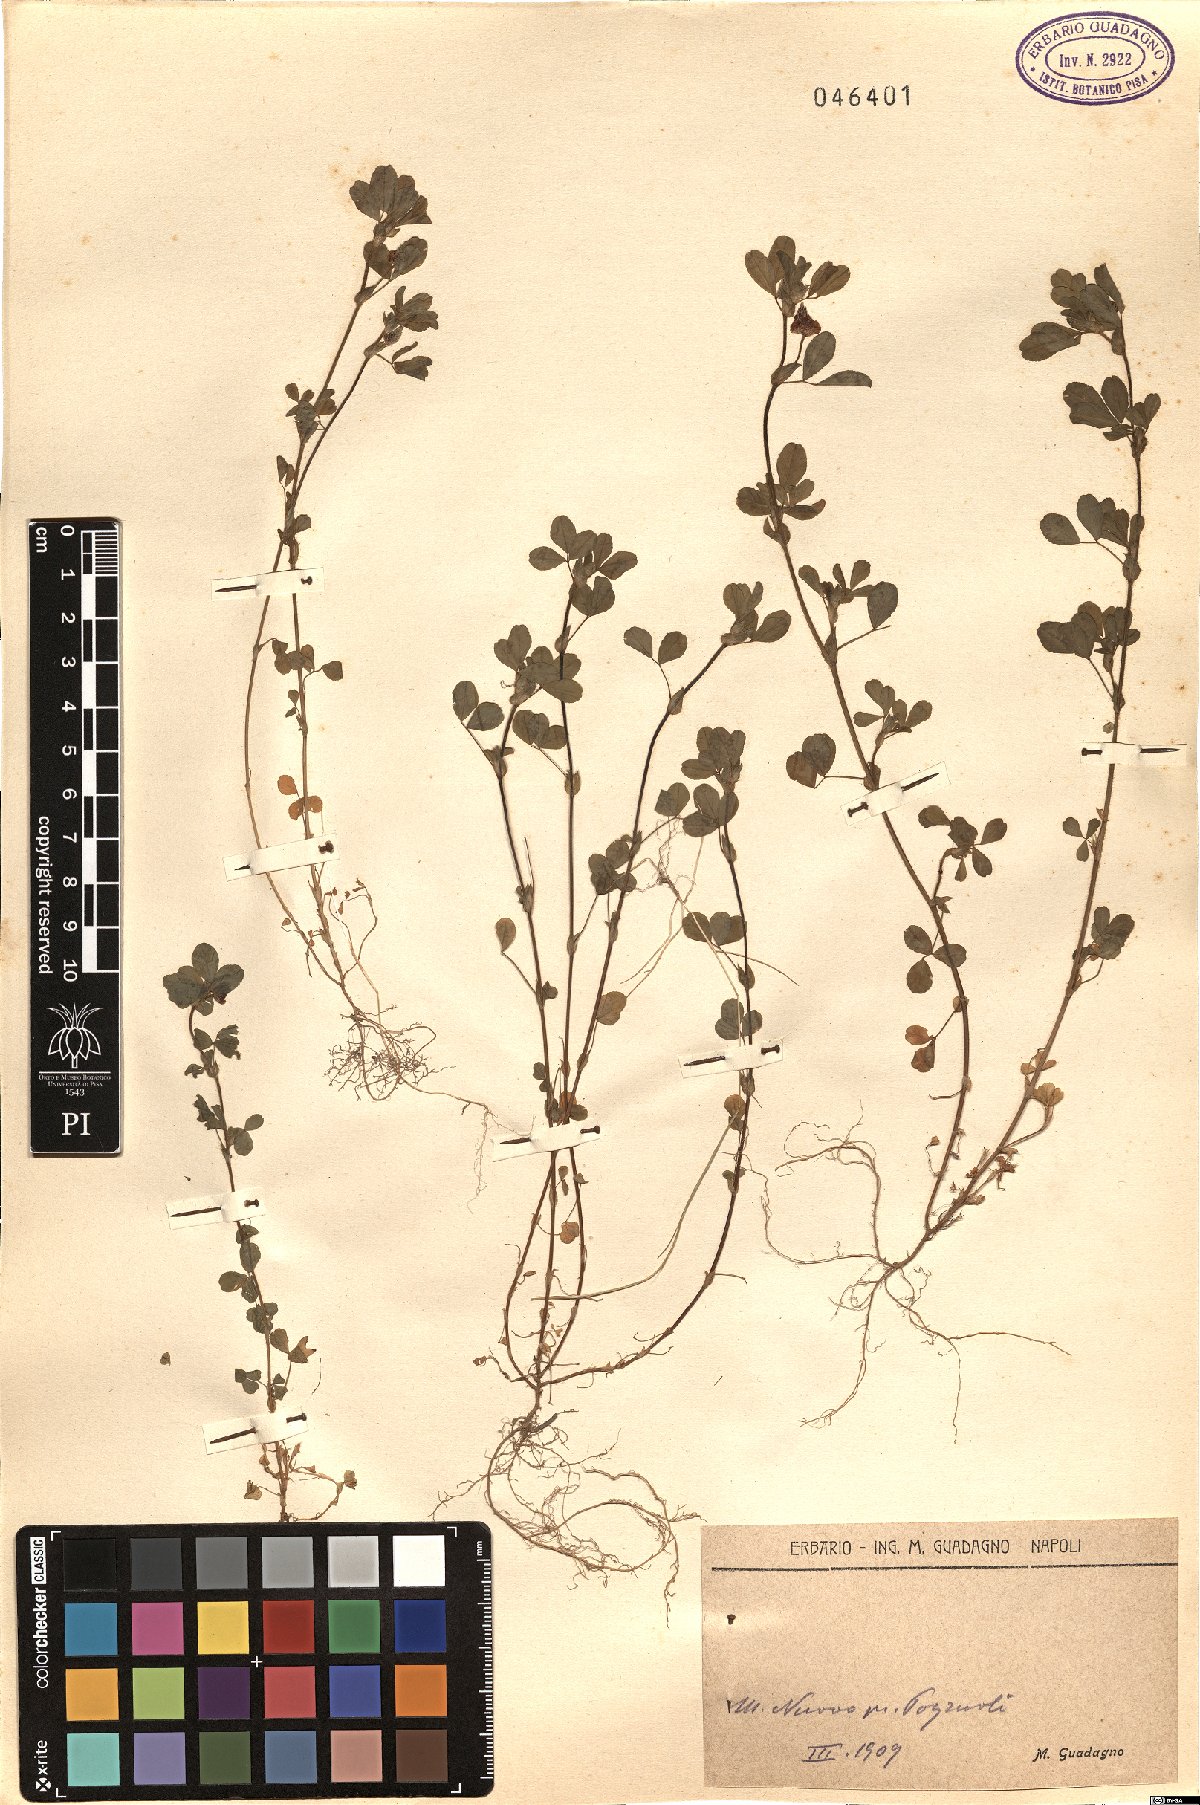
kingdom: Plantae
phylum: Tracheophyta
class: Magnoliopsida
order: Fabales
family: Fabaceae
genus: Trifolium
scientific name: Trifolium
